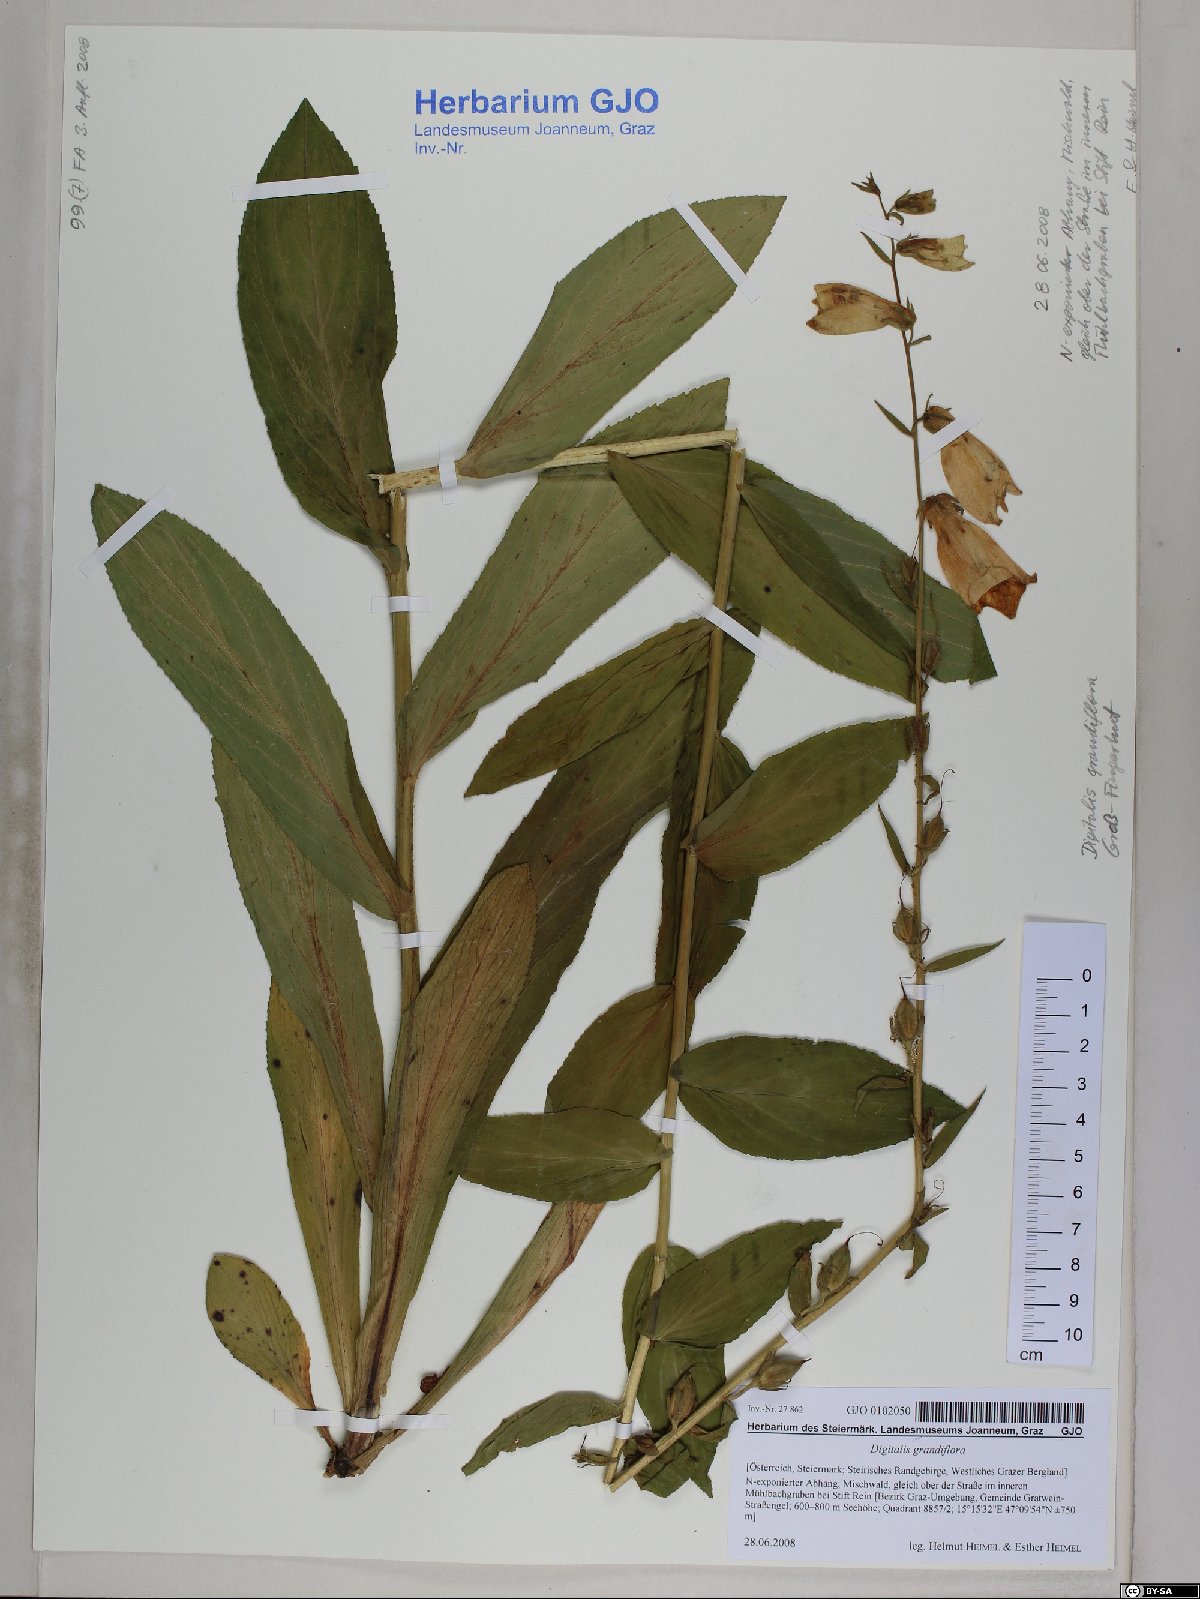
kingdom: Plantae
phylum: Tracheophyta
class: Magnoliopsida
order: Lamiales
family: Plantaginaceae
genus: Digitalis
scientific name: Digitalis grandiflora
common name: Yellow foxglove
